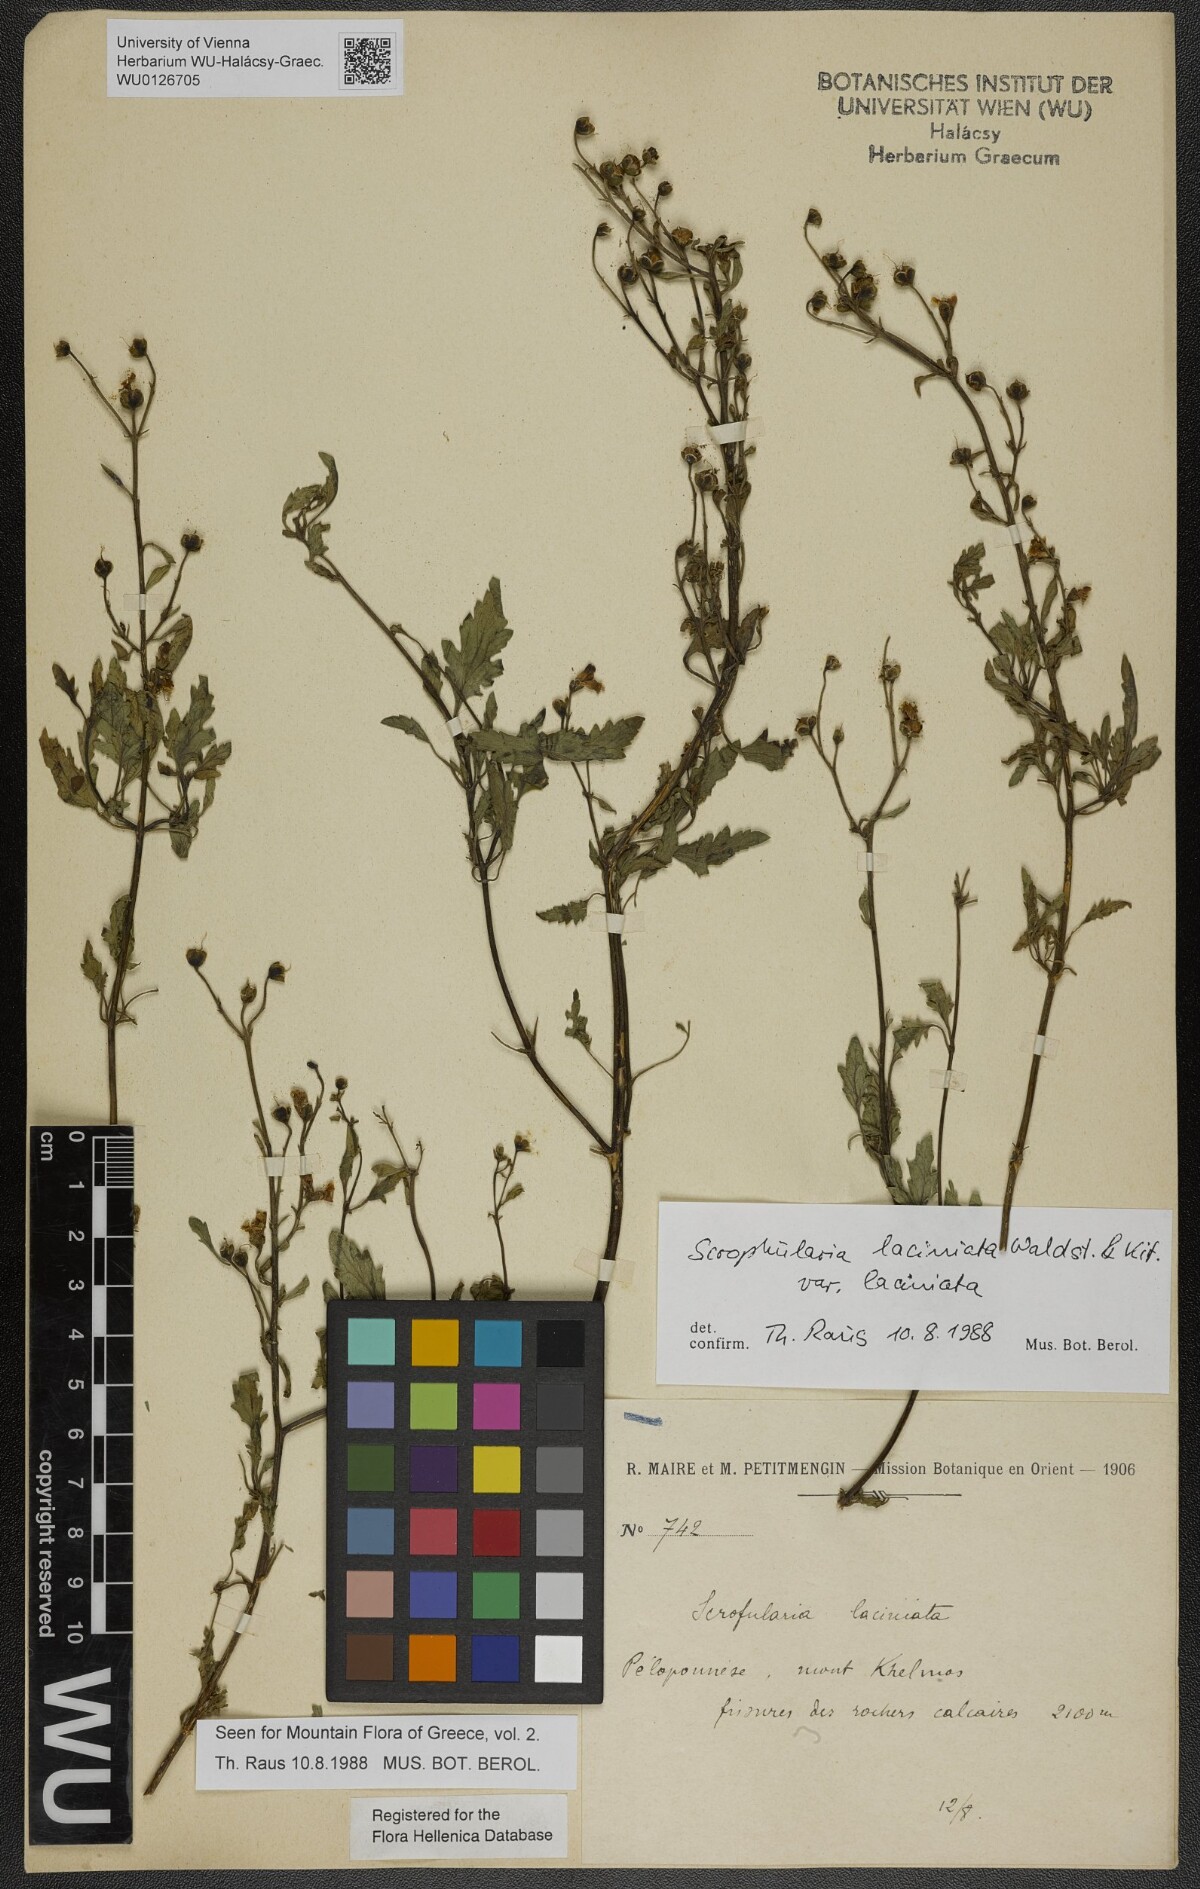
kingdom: Plantae
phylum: Tracheophyta
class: Magnoliopsida
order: Lamiales
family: Scrophulariaceae
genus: Scrophularia
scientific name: Scrophularia laciniata
